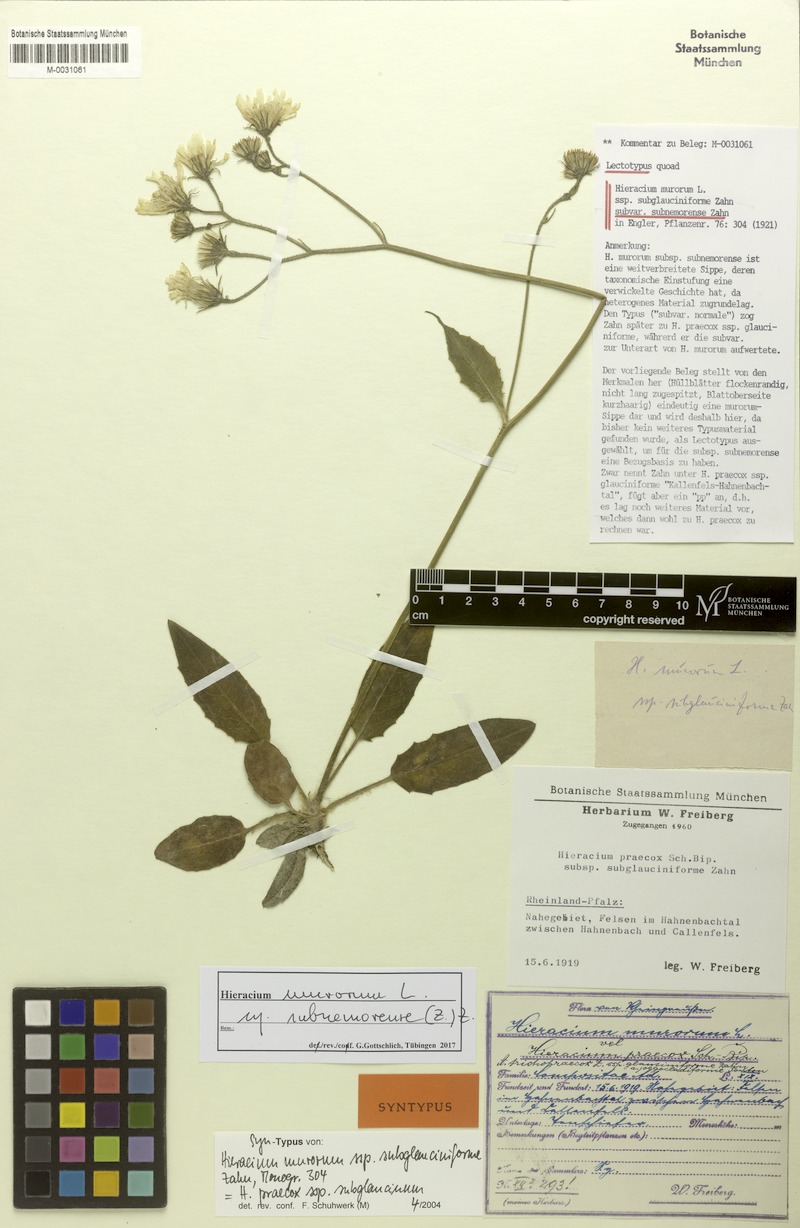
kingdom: Plantae
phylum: Tracheophyta
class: Magnoliopsida
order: Asterales
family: Asteraceae
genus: Hieracium
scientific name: Hieracium murorum
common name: Wall hawkweed
